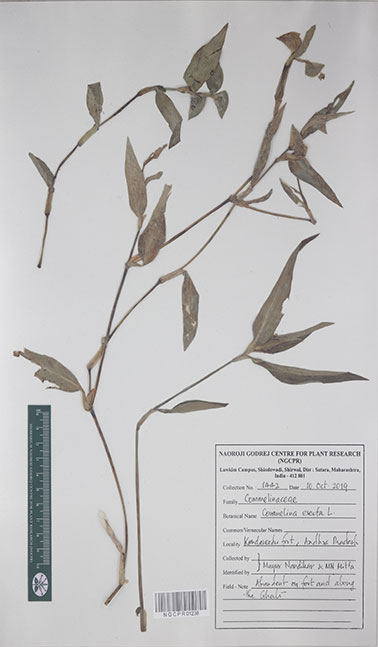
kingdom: Plantae
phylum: Tracheophyta
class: Liliopsida
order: Commelinales
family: Commelinaceae
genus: Commelina
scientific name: Commelina erecta
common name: Blousel blommetjie
